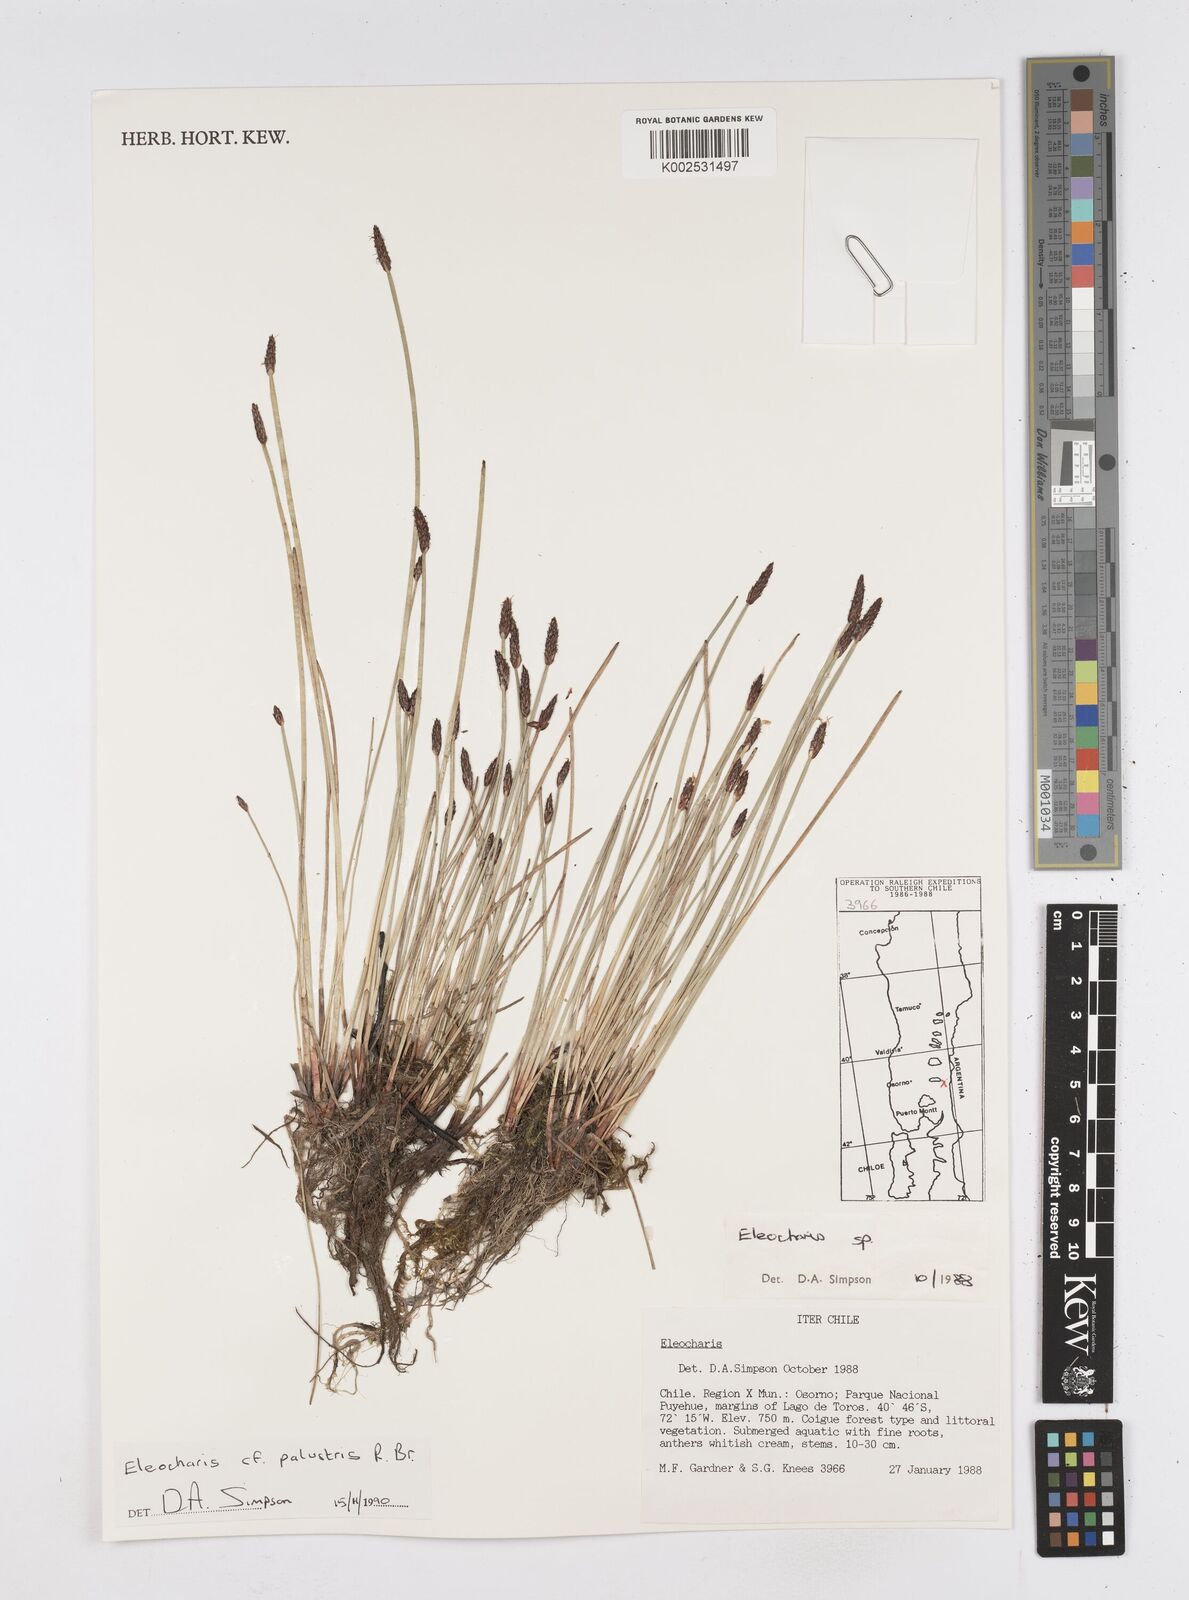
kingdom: Plantae
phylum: Tracheophyta
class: Liliopsida
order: Poales
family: Cyperaceae
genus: Eleocharis
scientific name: Eleocharis palustris
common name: Common spike-rush
